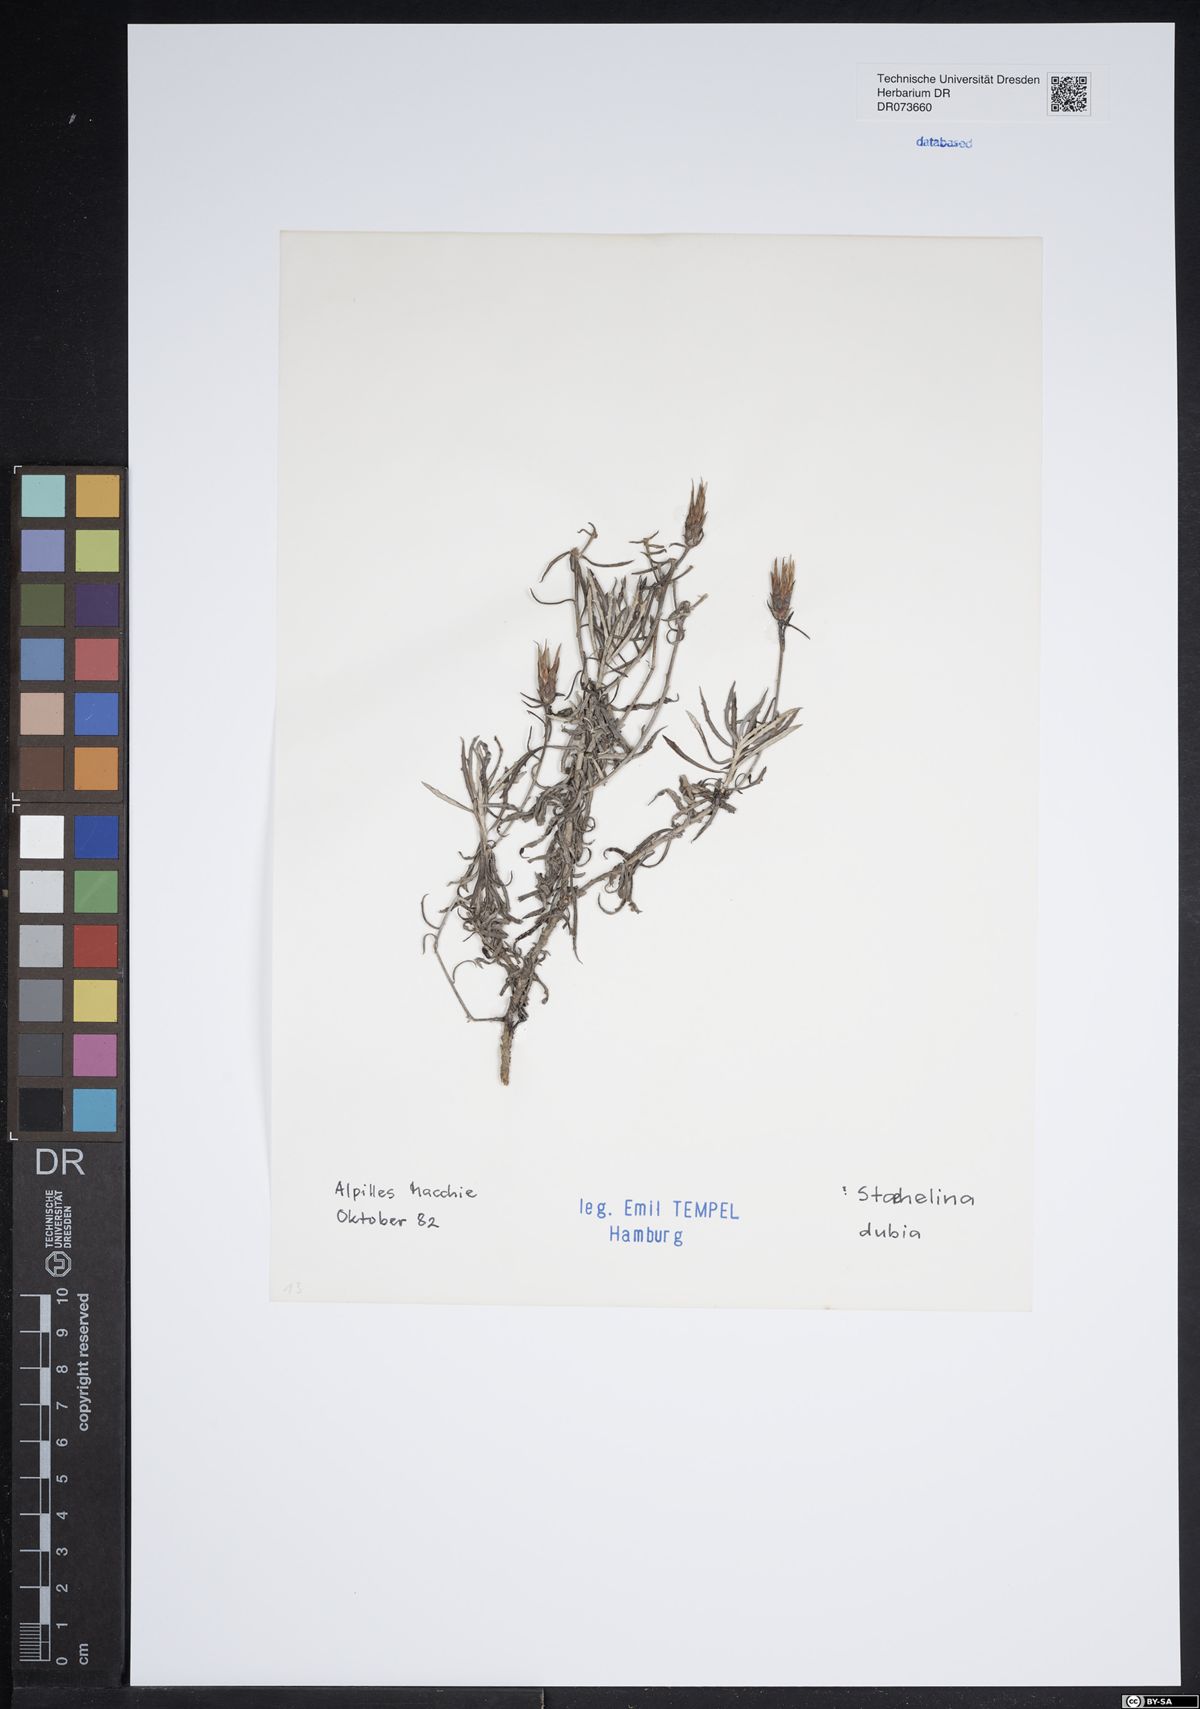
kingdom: Plantae
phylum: Tracheophyta
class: Magnoliopsida
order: Asterales
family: Asteraceae
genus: Staehelina
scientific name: Staehelina dubia
